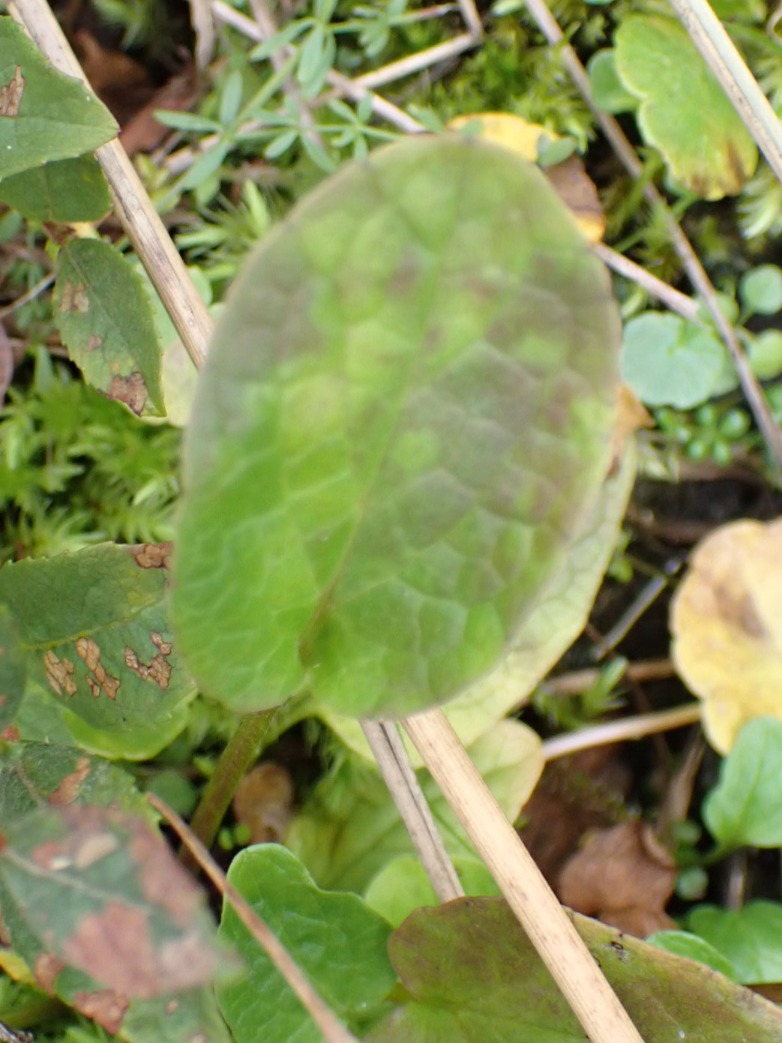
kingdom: Plantae
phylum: Tracheophyta
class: Magnoliopsida
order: Dipsacales
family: Caprifoliaceae
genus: Valeriana
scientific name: Valeriana dioica
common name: Tvebo baldrian
